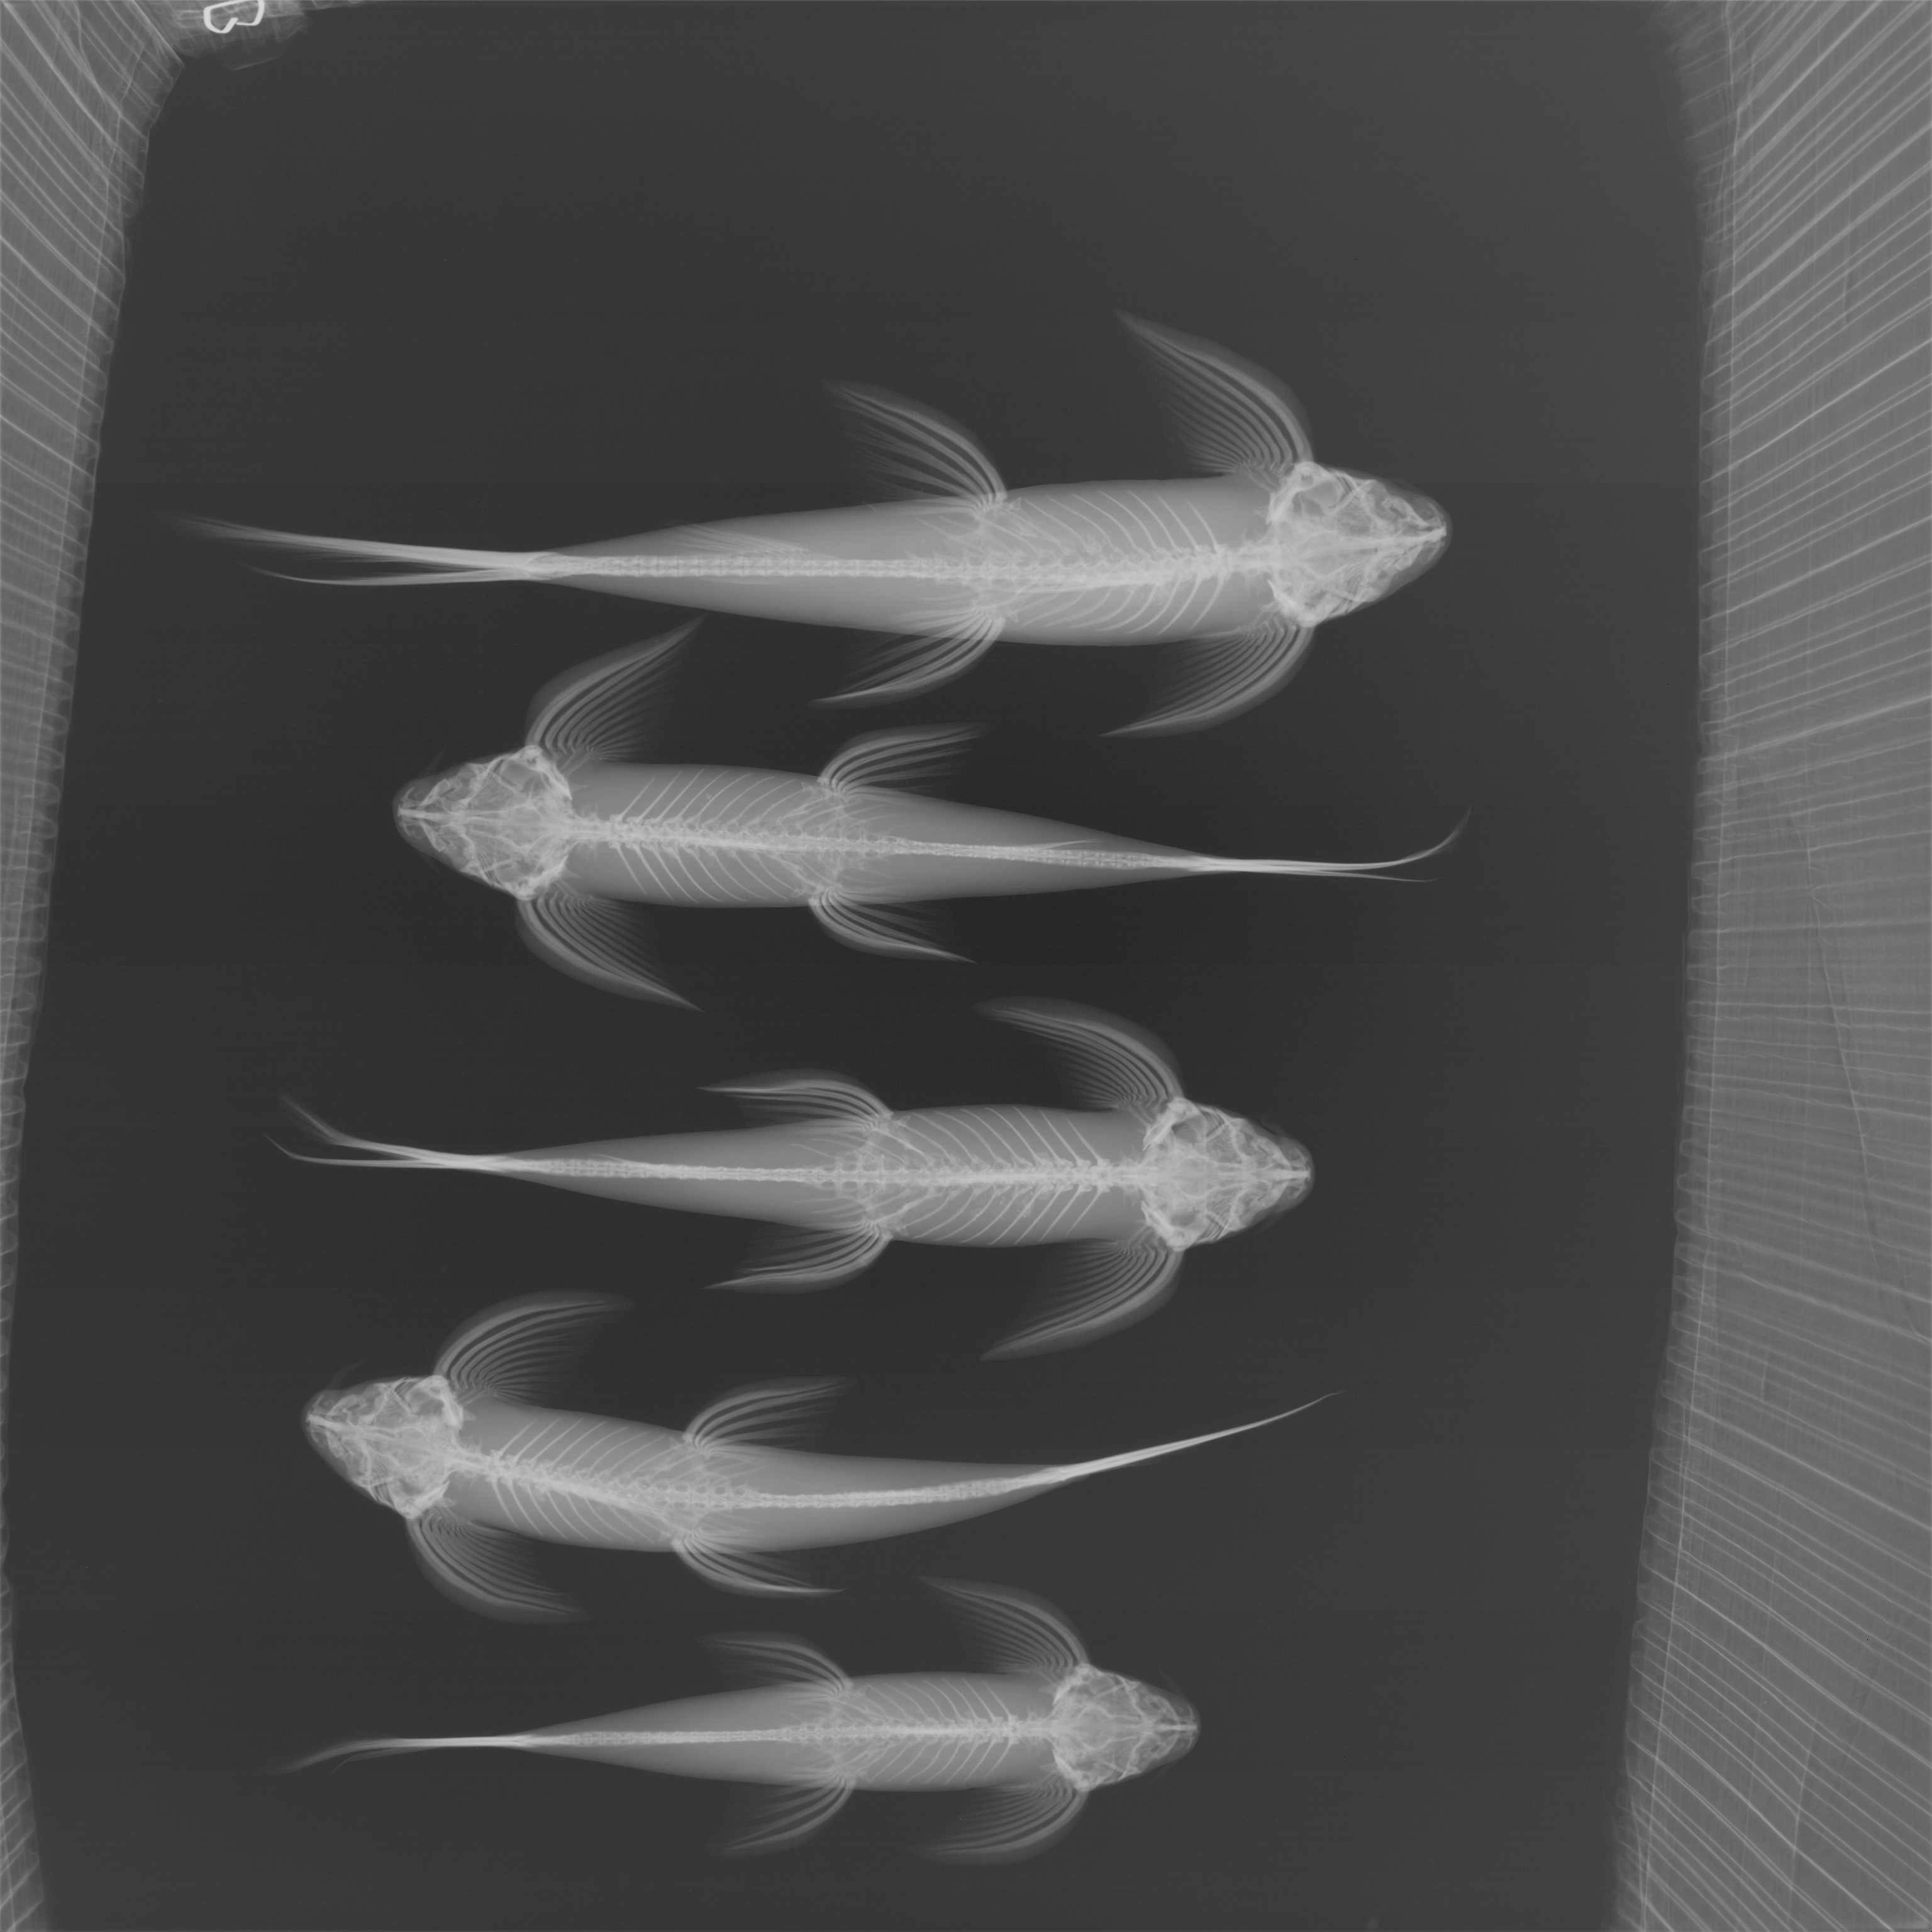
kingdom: Animalia
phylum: Chordata
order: Siluriformes
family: Amphiliidae
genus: Congoglanis
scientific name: Congoglanis alula
